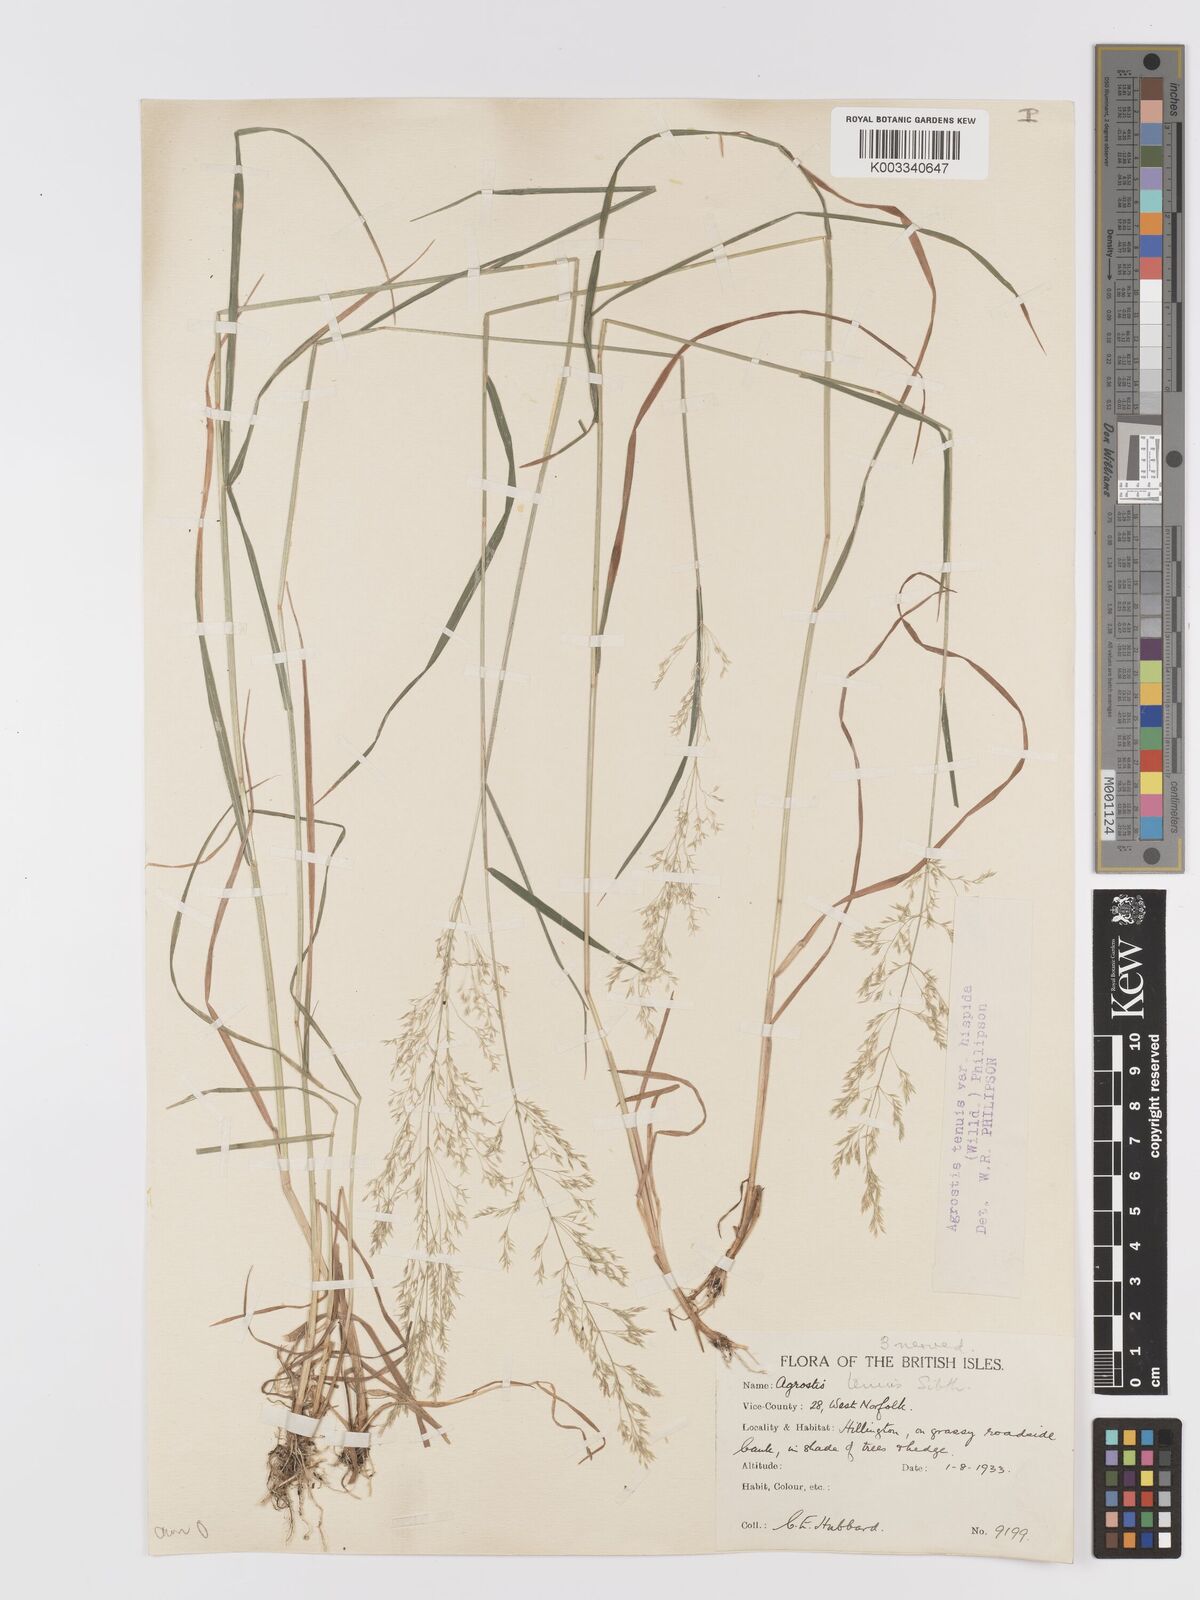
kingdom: Plantae
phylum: Tracheophyta
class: Liliopsida
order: Poales
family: Poaceae
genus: Agrostis
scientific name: Agrostis capillaris
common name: Colonial bentgrass
